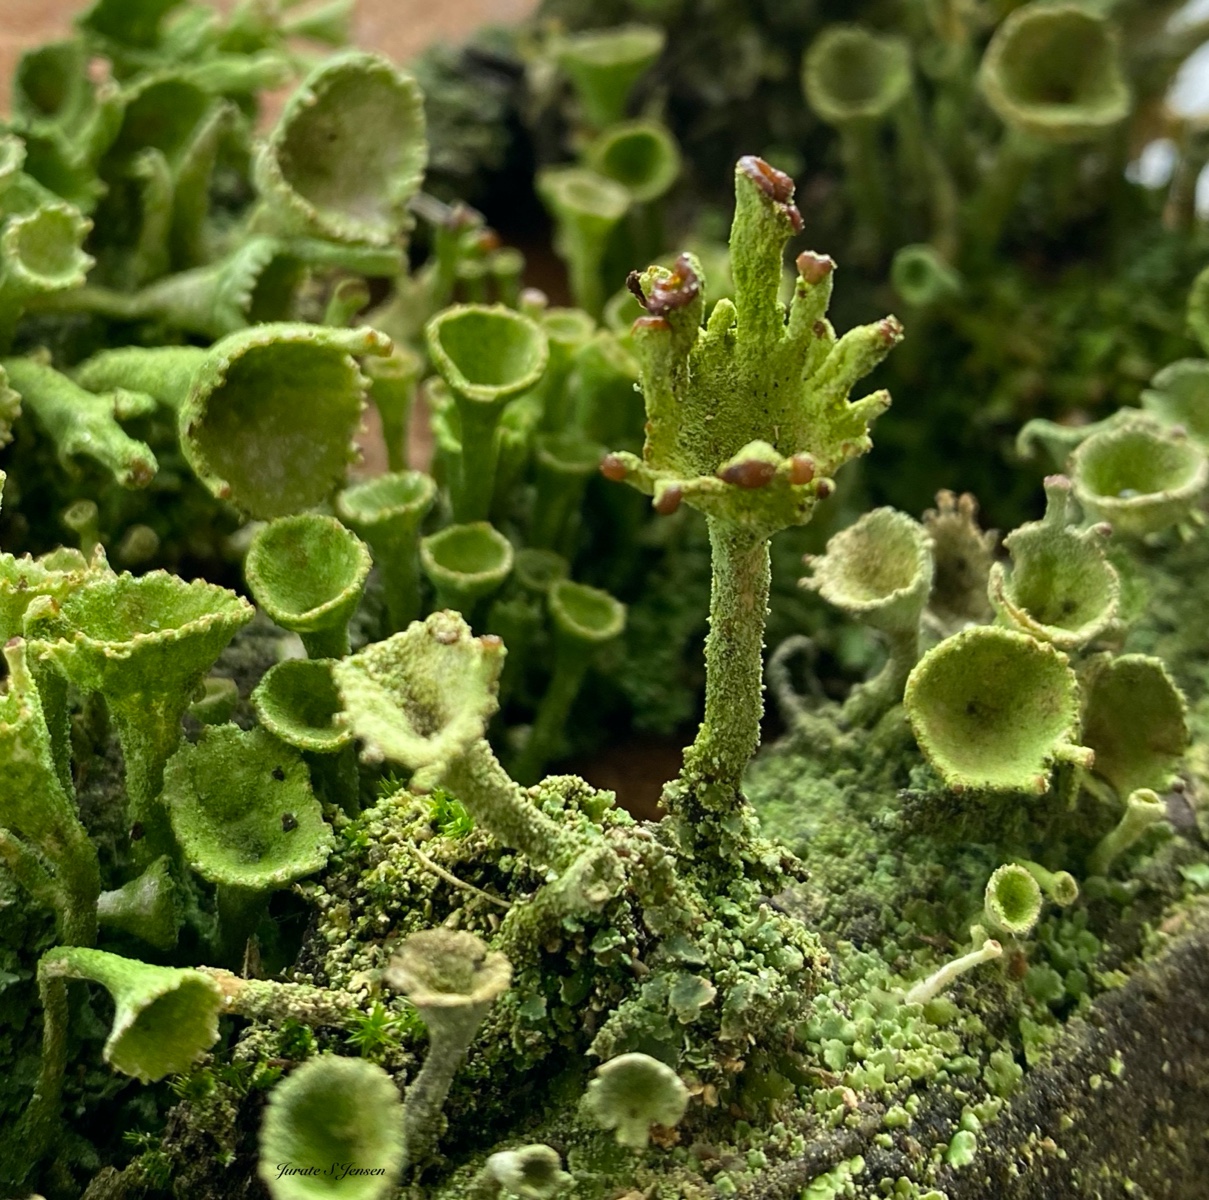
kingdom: Fungi
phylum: Ascomycota
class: Lecanoromycetes
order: Lecanorales
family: Cladoniaceae
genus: Cladonia
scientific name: Cladonia fimbriata
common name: bleggrøn bægerlav
